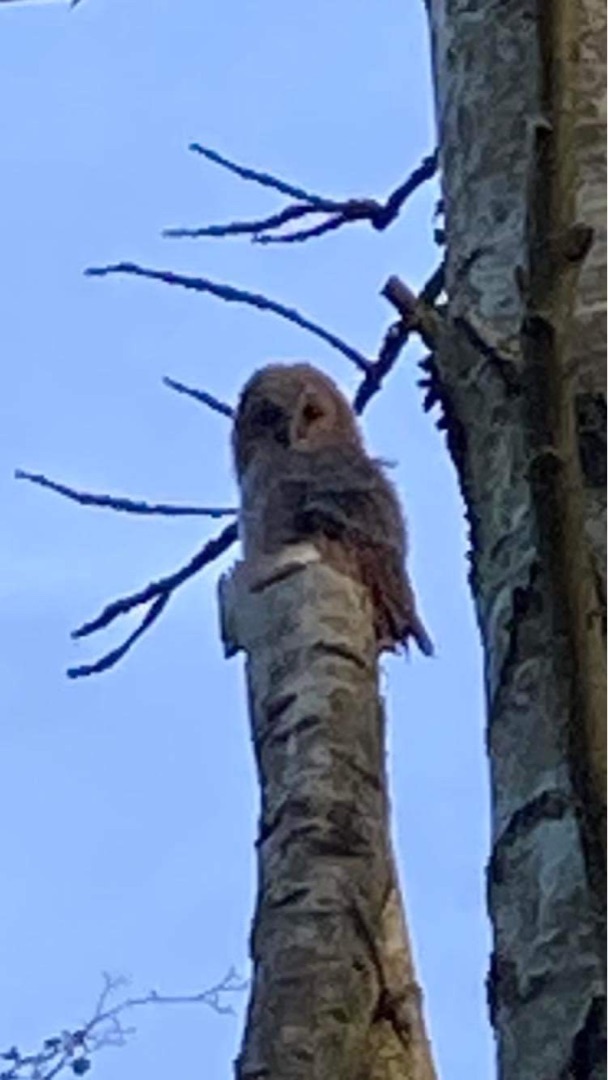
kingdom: Animalia
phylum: Chordata
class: Aves
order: Strigiformes
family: Strigidae
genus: Strix
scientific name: Strix aluco
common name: Natugle
